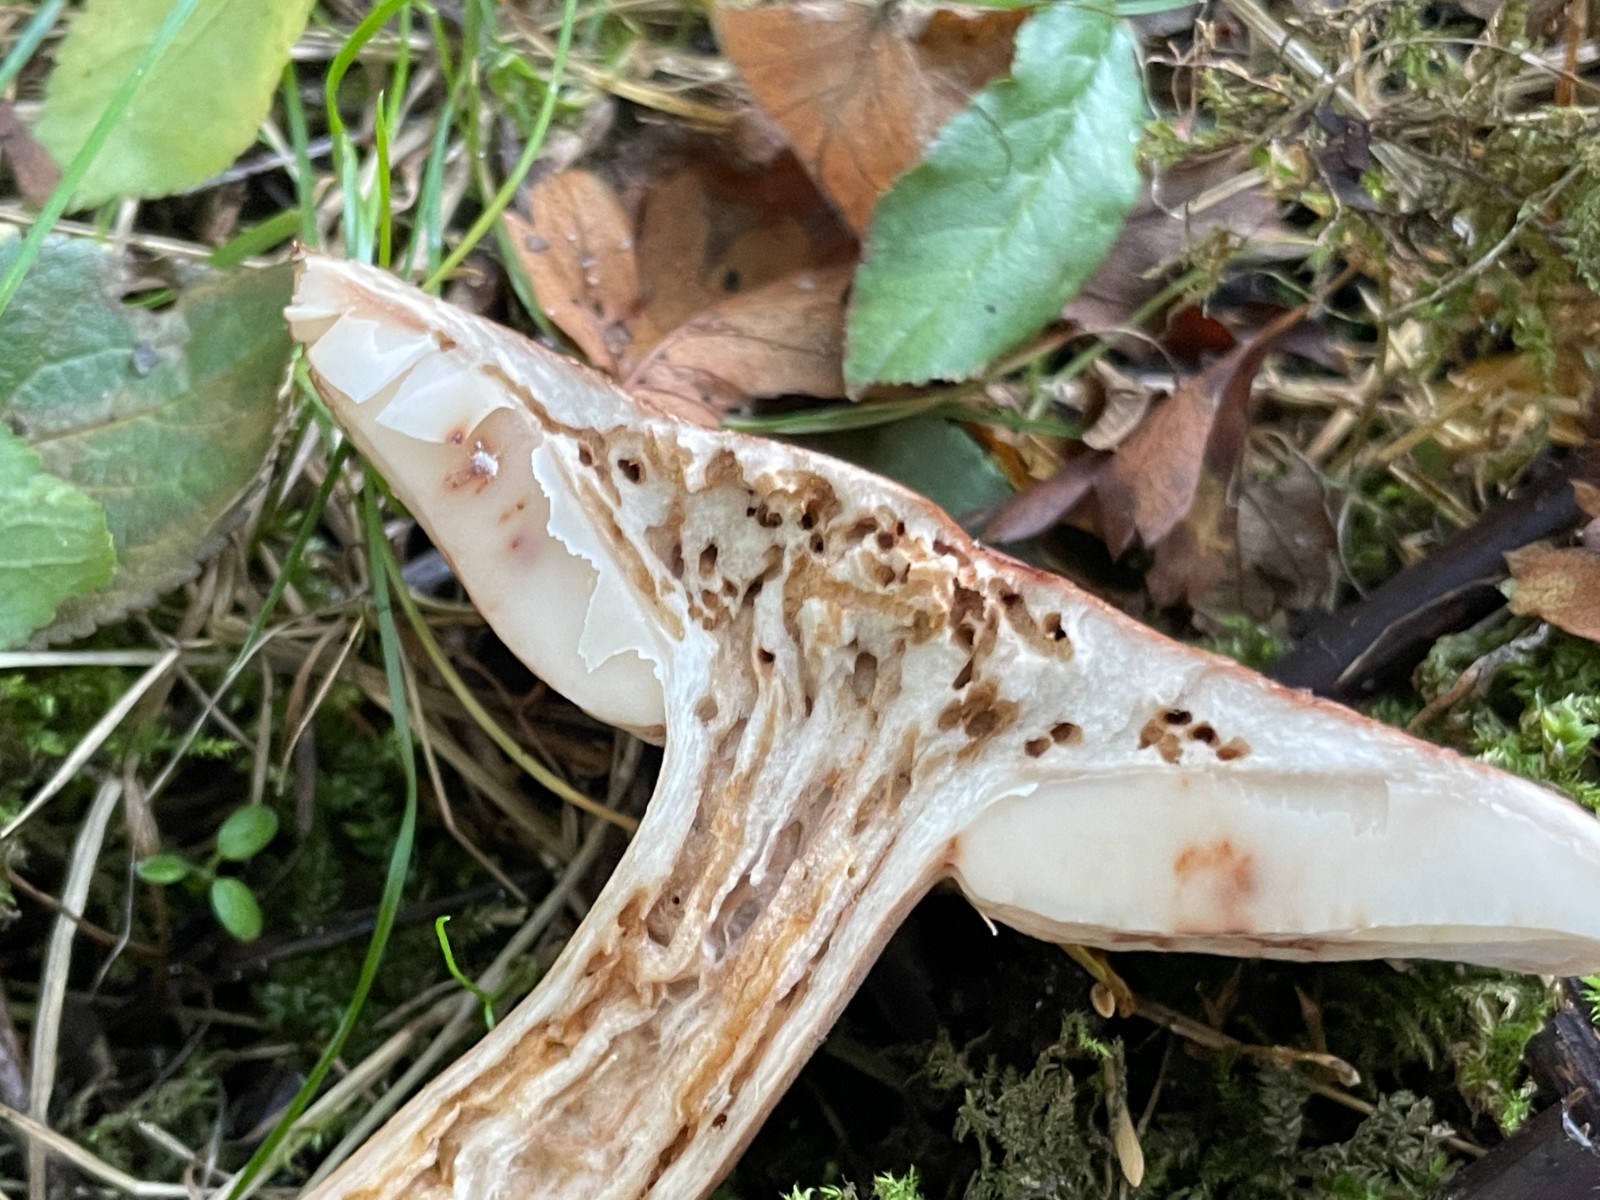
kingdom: Fungi
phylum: Basidiomycota
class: Agaricomycetes
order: Agaricales
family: Tricholomataceae
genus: Tricholoma
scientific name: Tricholoma imbricatum
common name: skællet ridderhat
